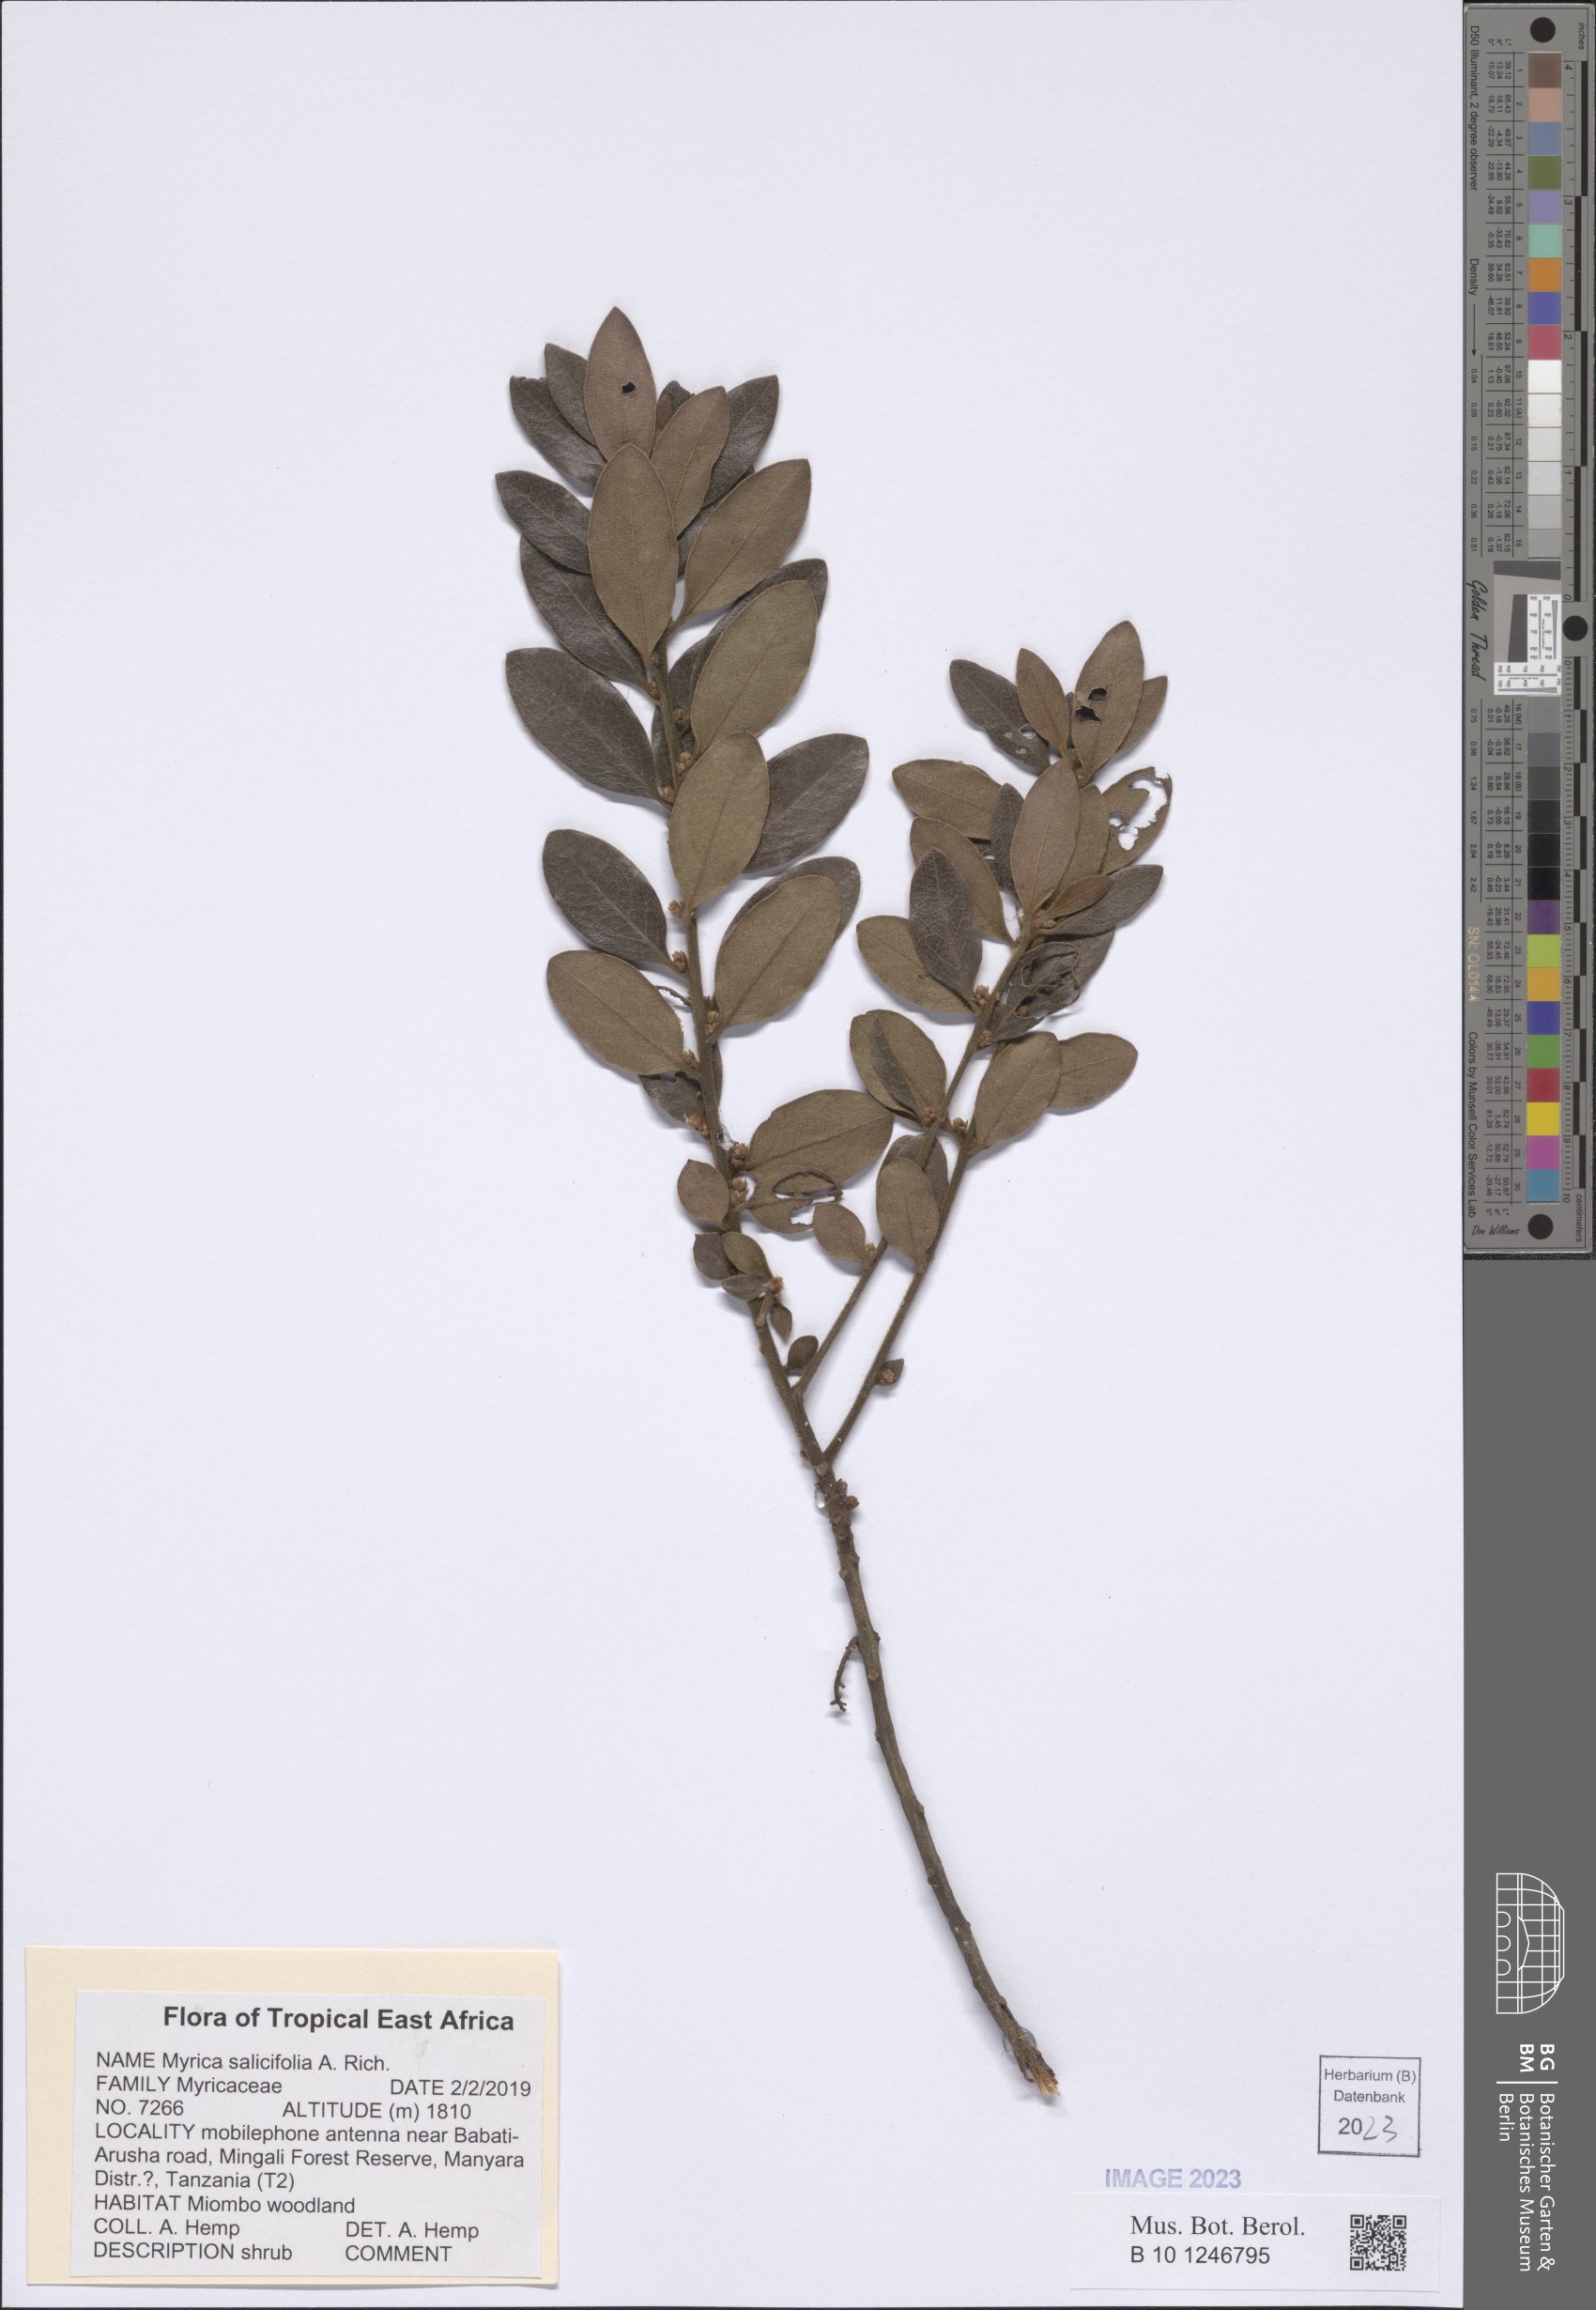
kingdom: Plantae
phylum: Tracheophyta
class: Magnoliopsida
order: Fagales
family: Myricaceae
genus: Morella
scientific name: Morella salicifolia
